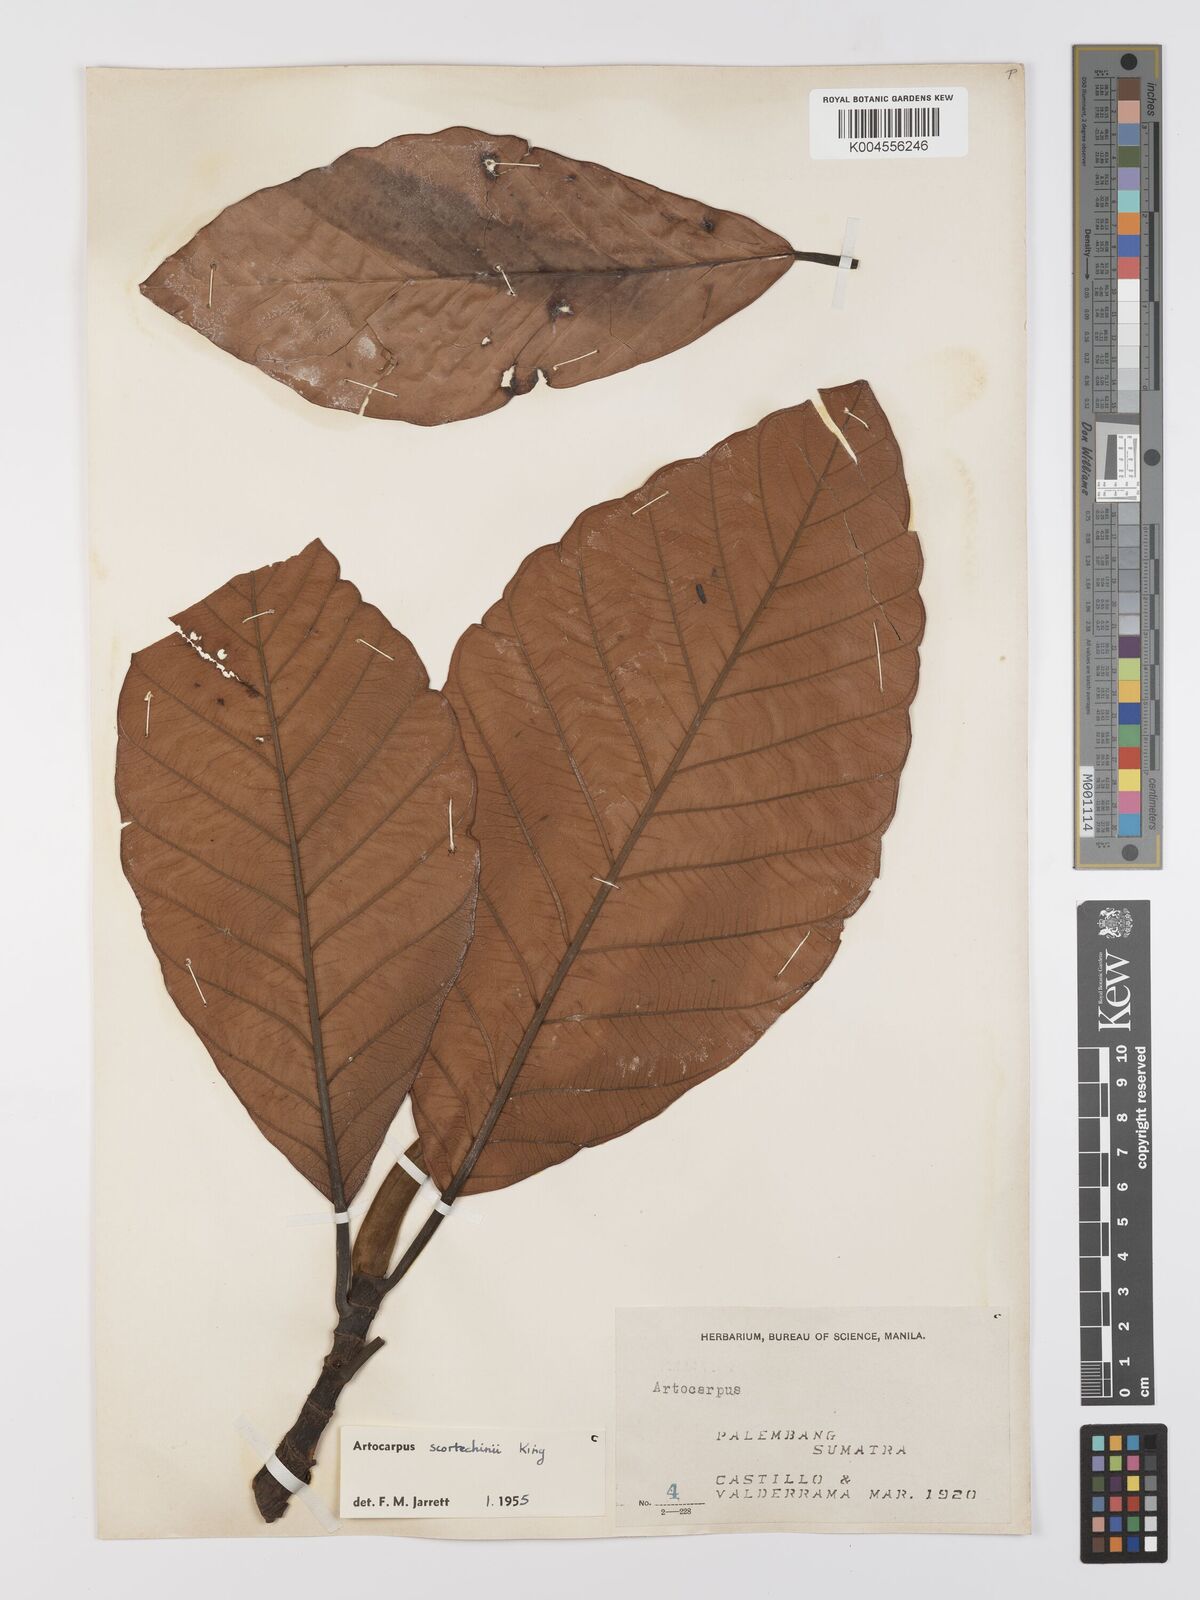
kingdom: Plantae
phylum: Tracheophyta
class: Magnoliopsida
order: Rosales
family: Moraceae
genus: Artocarpus
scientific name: Artocarpus elasticus
